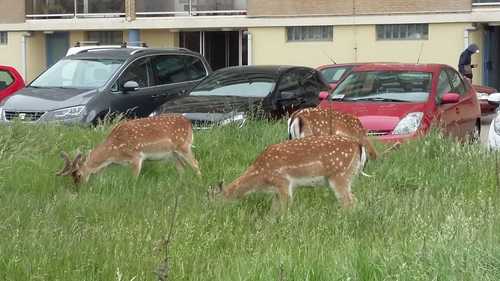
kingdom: Animalia
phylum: Chordata
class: Mammalia
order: Artiodactyla
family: Cervidae
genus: Dama
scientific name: Dama dama
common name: Fallow deer
